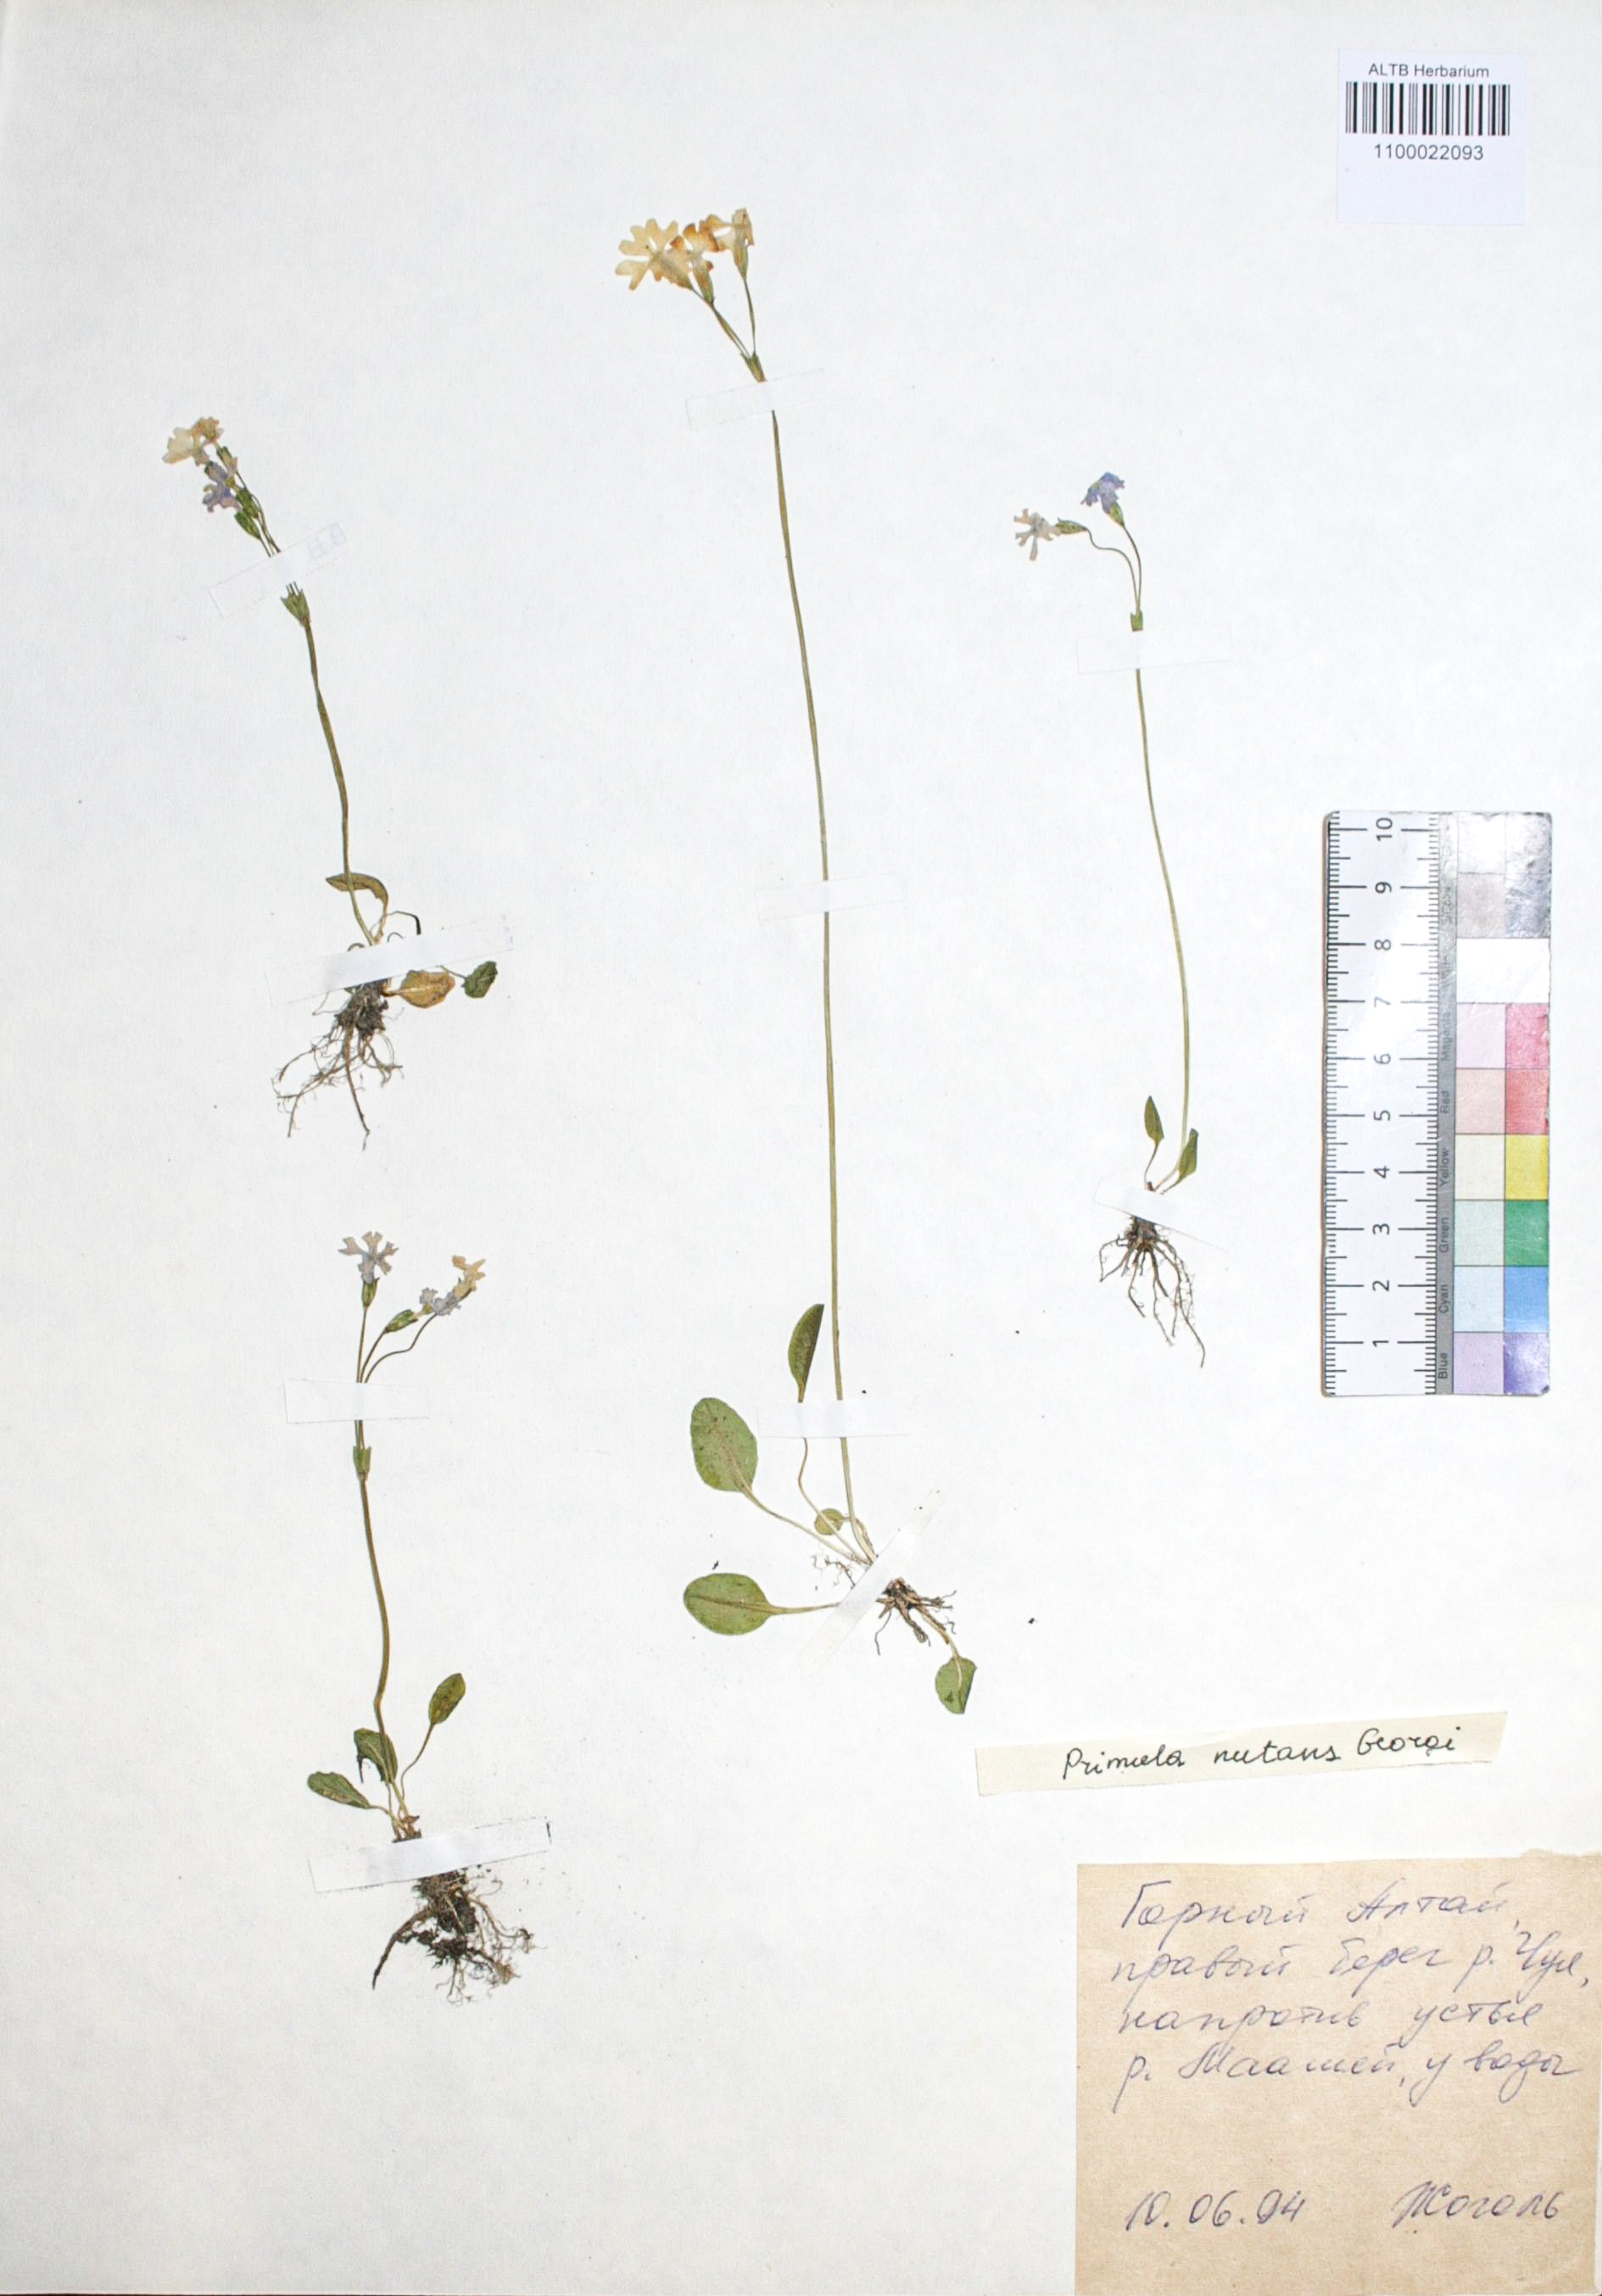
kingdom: Plantae
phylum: Tracheophyta
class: Magnoliopsida
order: Ericales
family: Primulaceae
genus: Primula
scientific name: Primula nutans
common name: Siberian primrose
